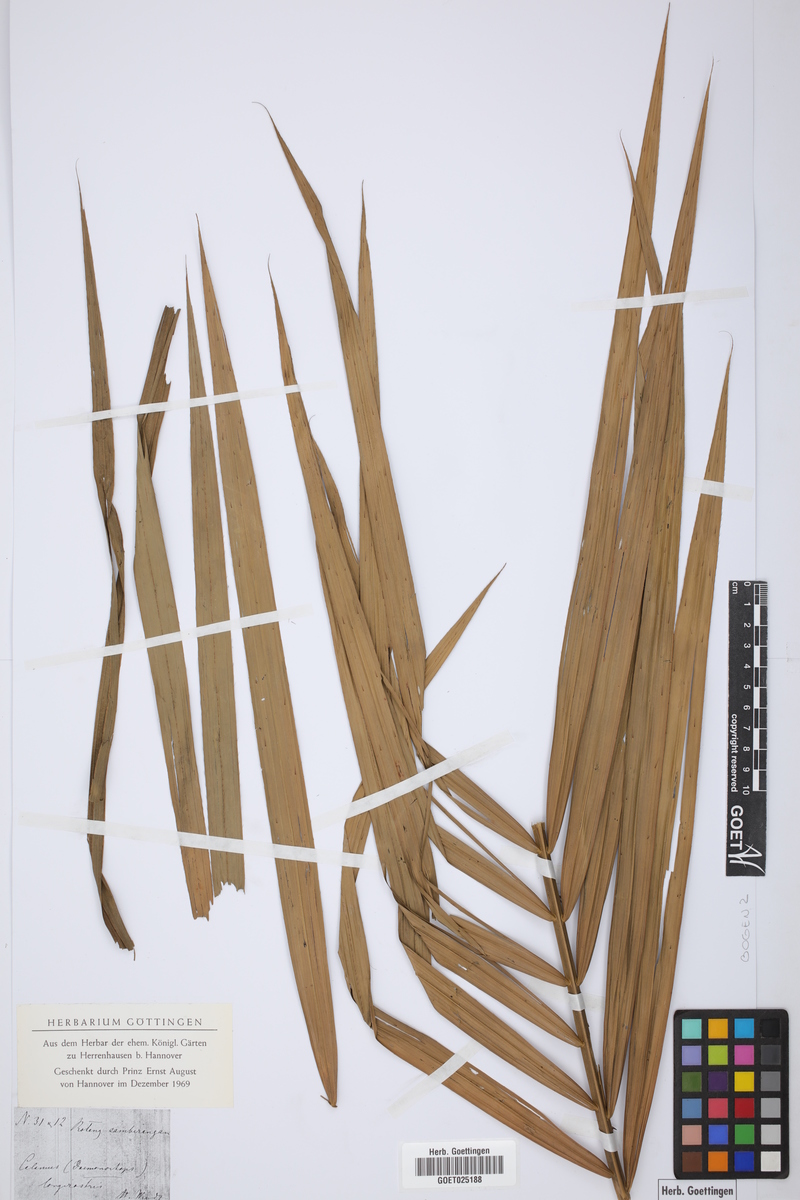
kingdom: Plantae
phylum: Tracheophyta
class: Liliopsida
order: Arecales
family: Arecaceae
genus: Calamus
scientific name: Calamus
